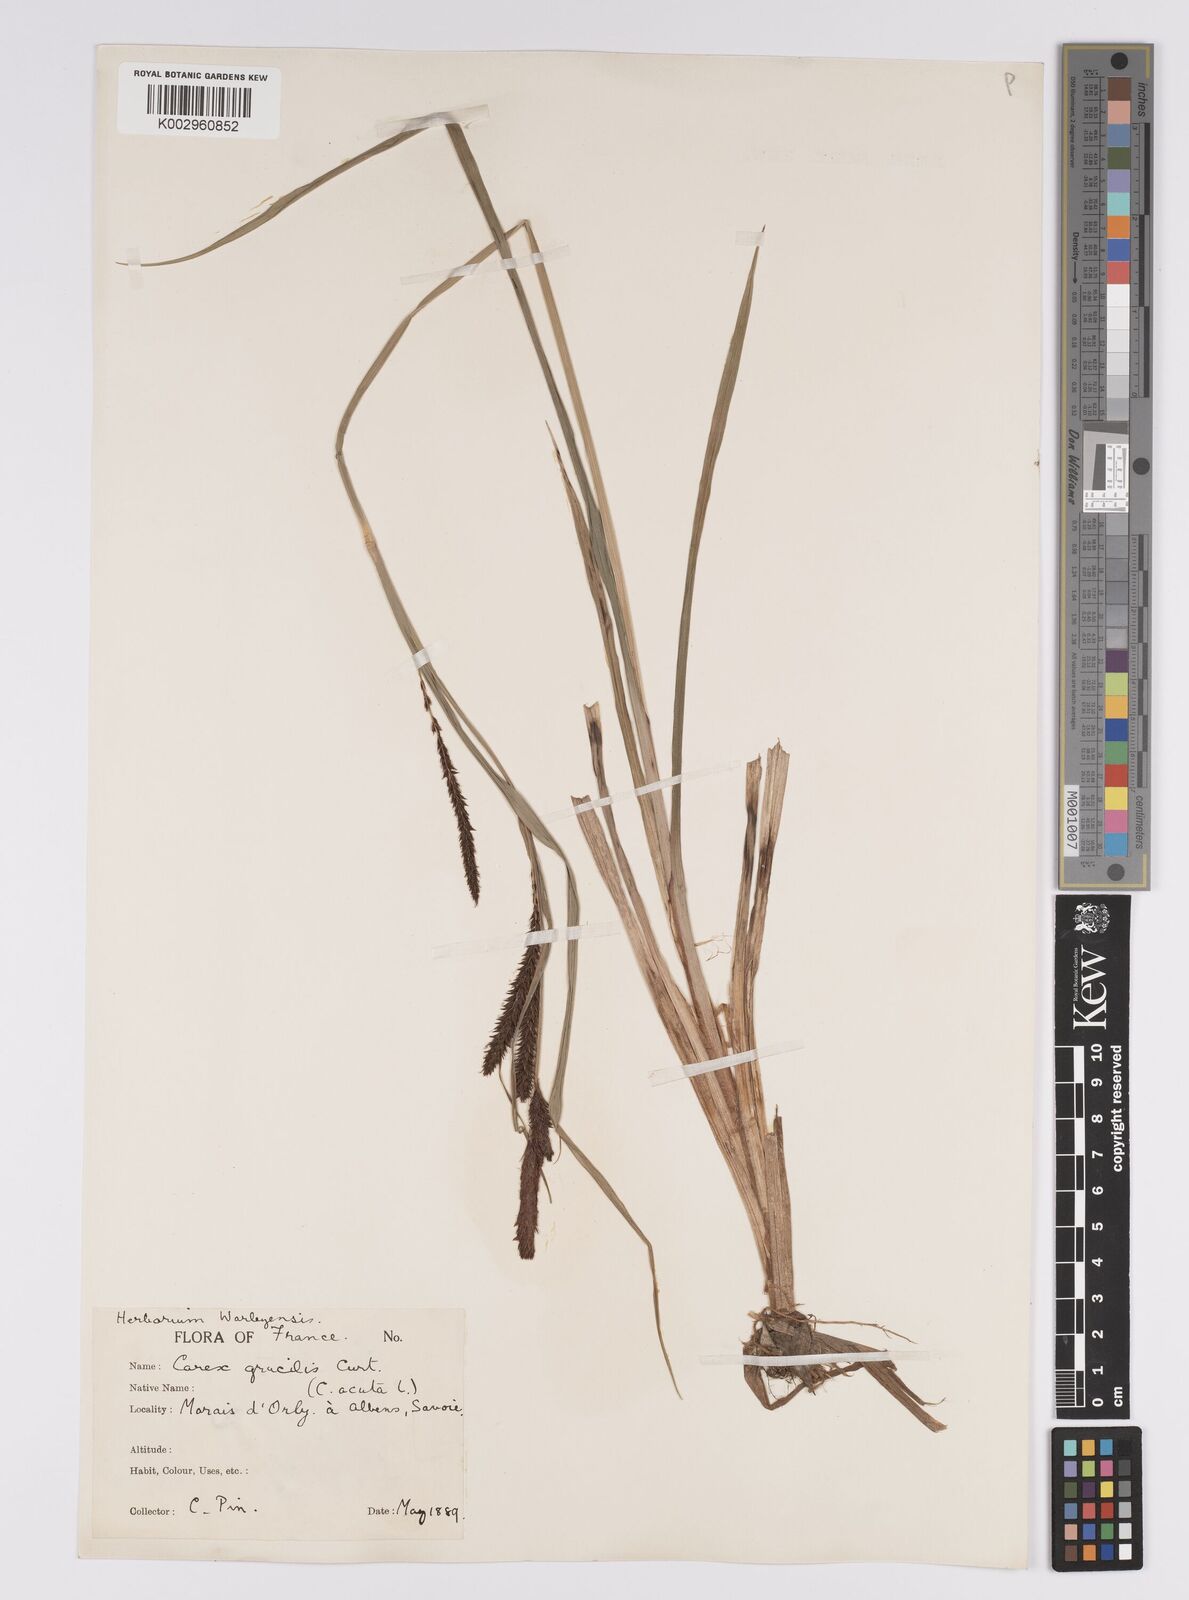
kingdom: Plantae
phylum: Tracheophyta
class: Liliopsida
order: Poales
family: Cyperaceae
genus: Carex
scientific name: Carex acutiformis
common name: Lesser pond-sedge
